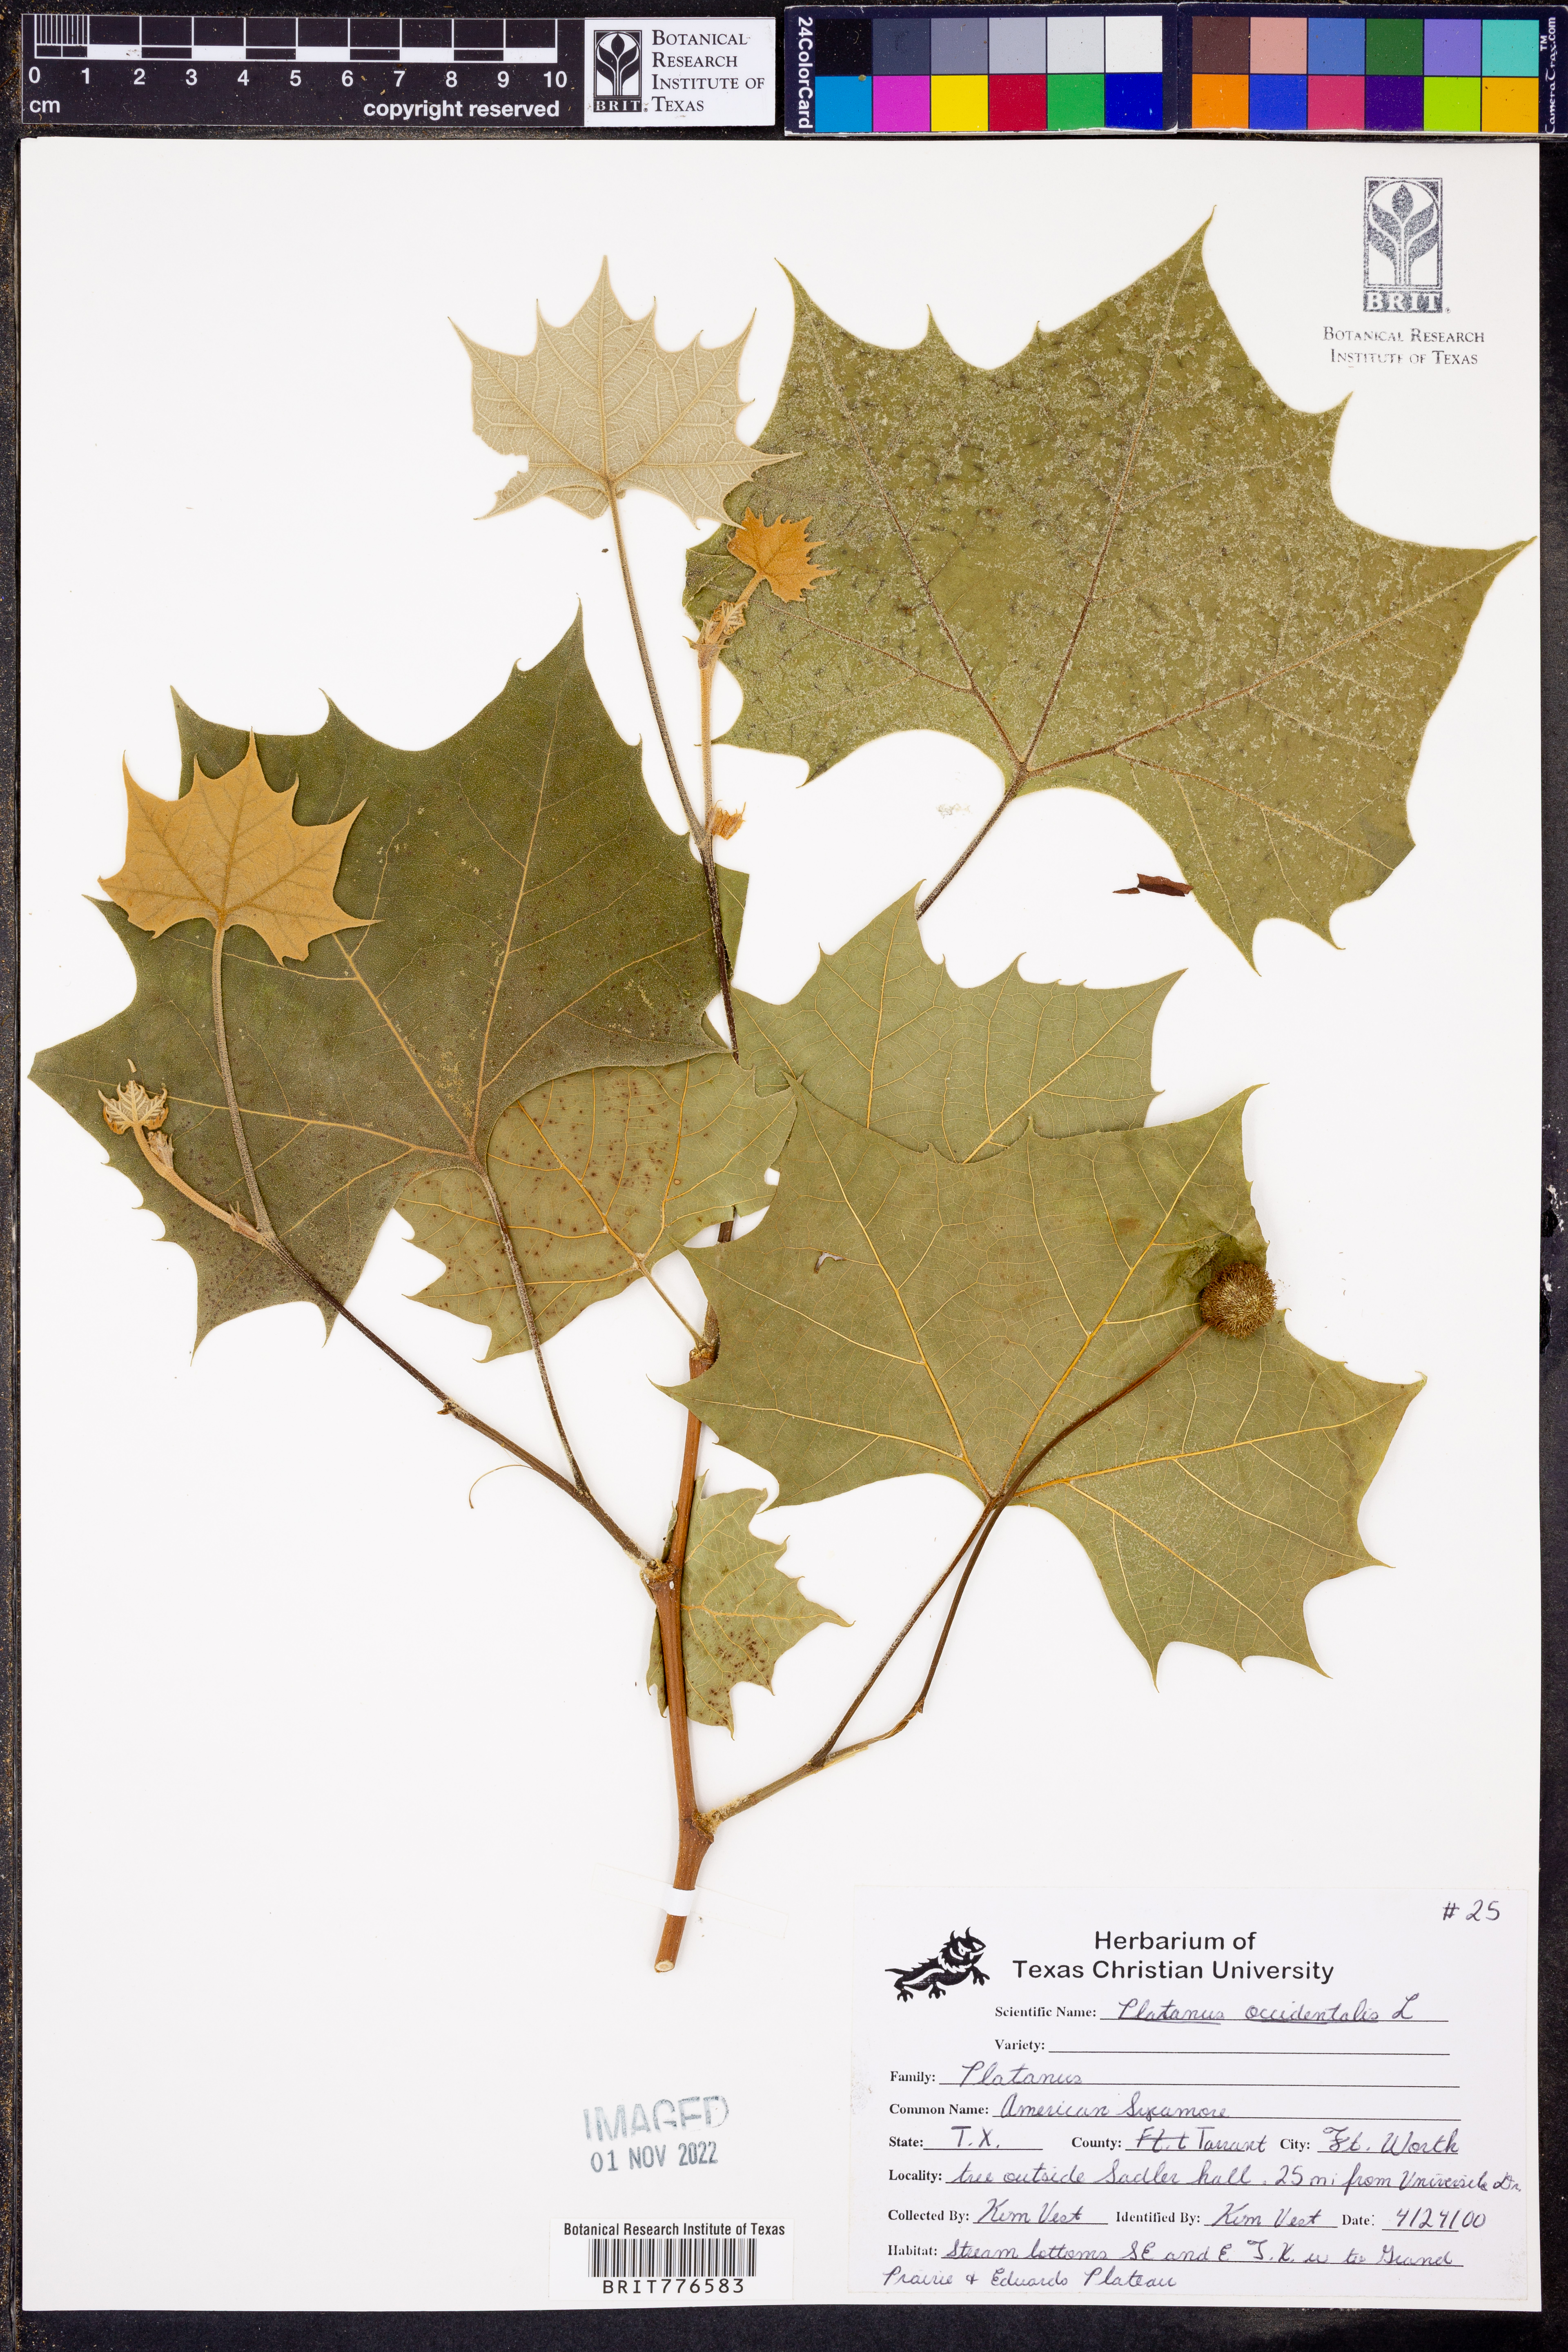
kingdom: Plantae
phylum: Tracheophyta
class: Magnoliopsida
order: Proteales
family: Platanaceae
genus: Platanus
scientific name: Platanus occidentalis
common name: American sycamore
